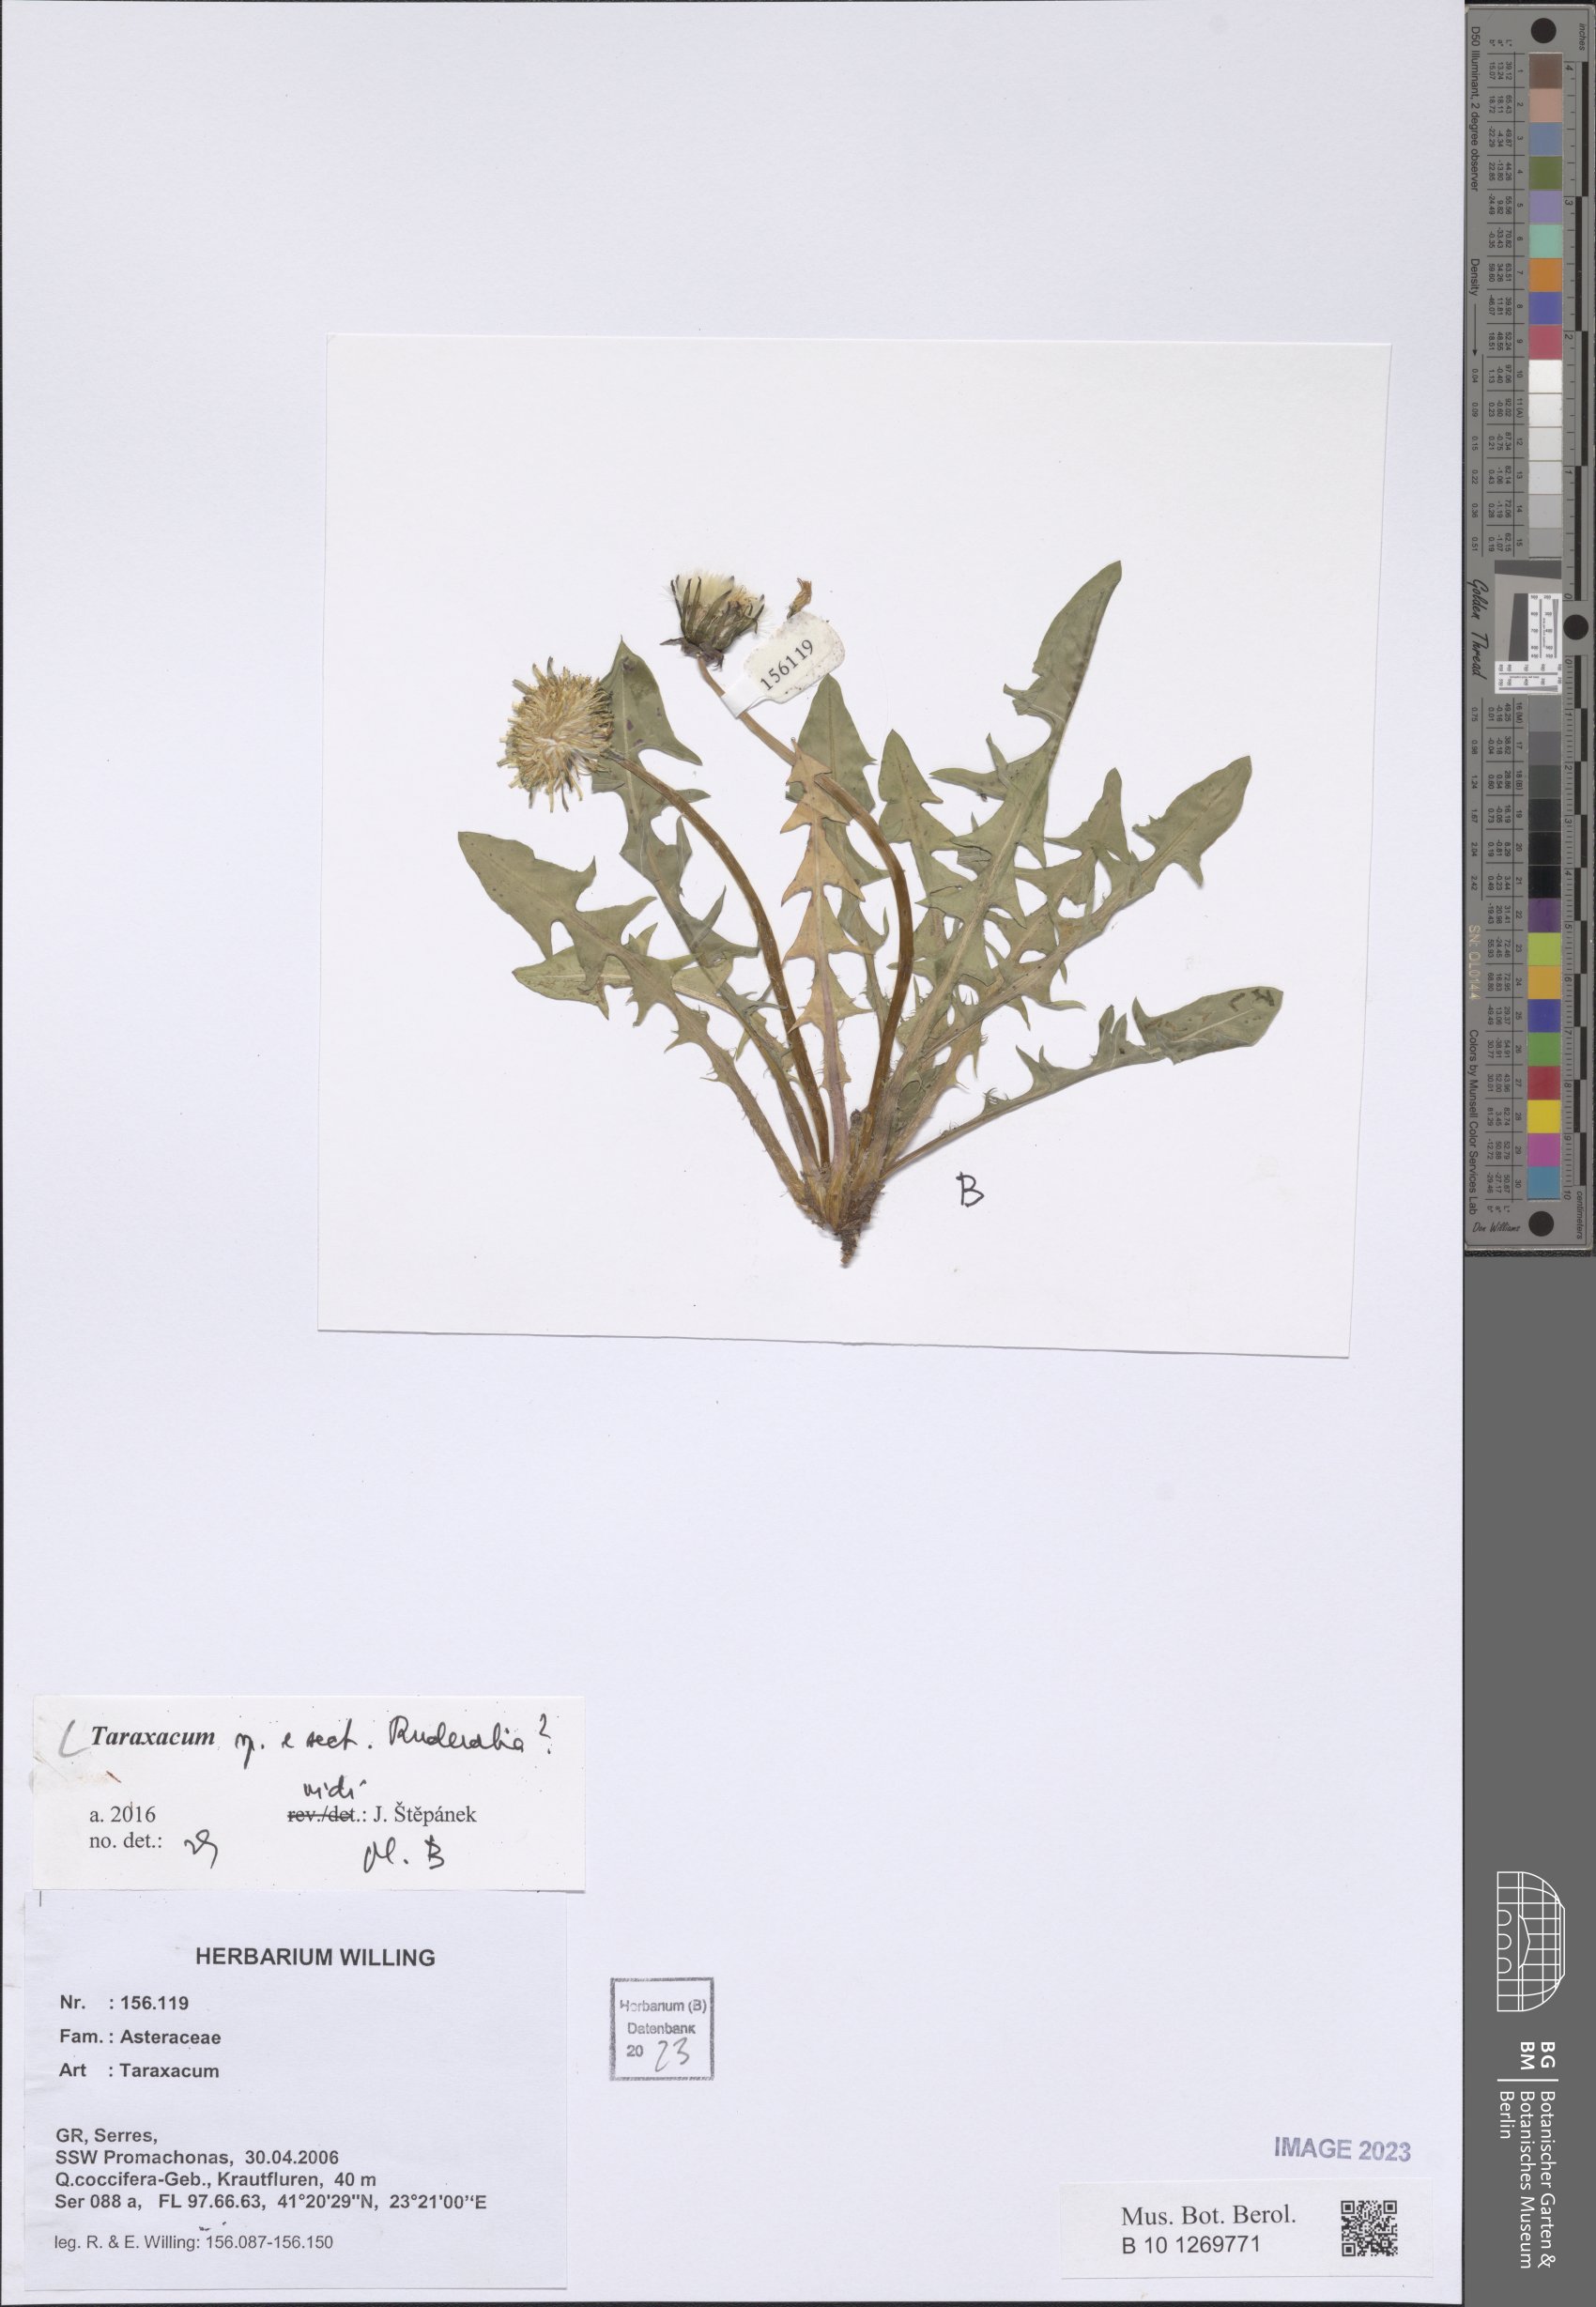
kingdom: Plantae
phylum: Tracheophyta
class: Magnoliopsida
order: Asterales
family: Asteraceae
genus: Taraxacum
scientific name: Taraxacum
